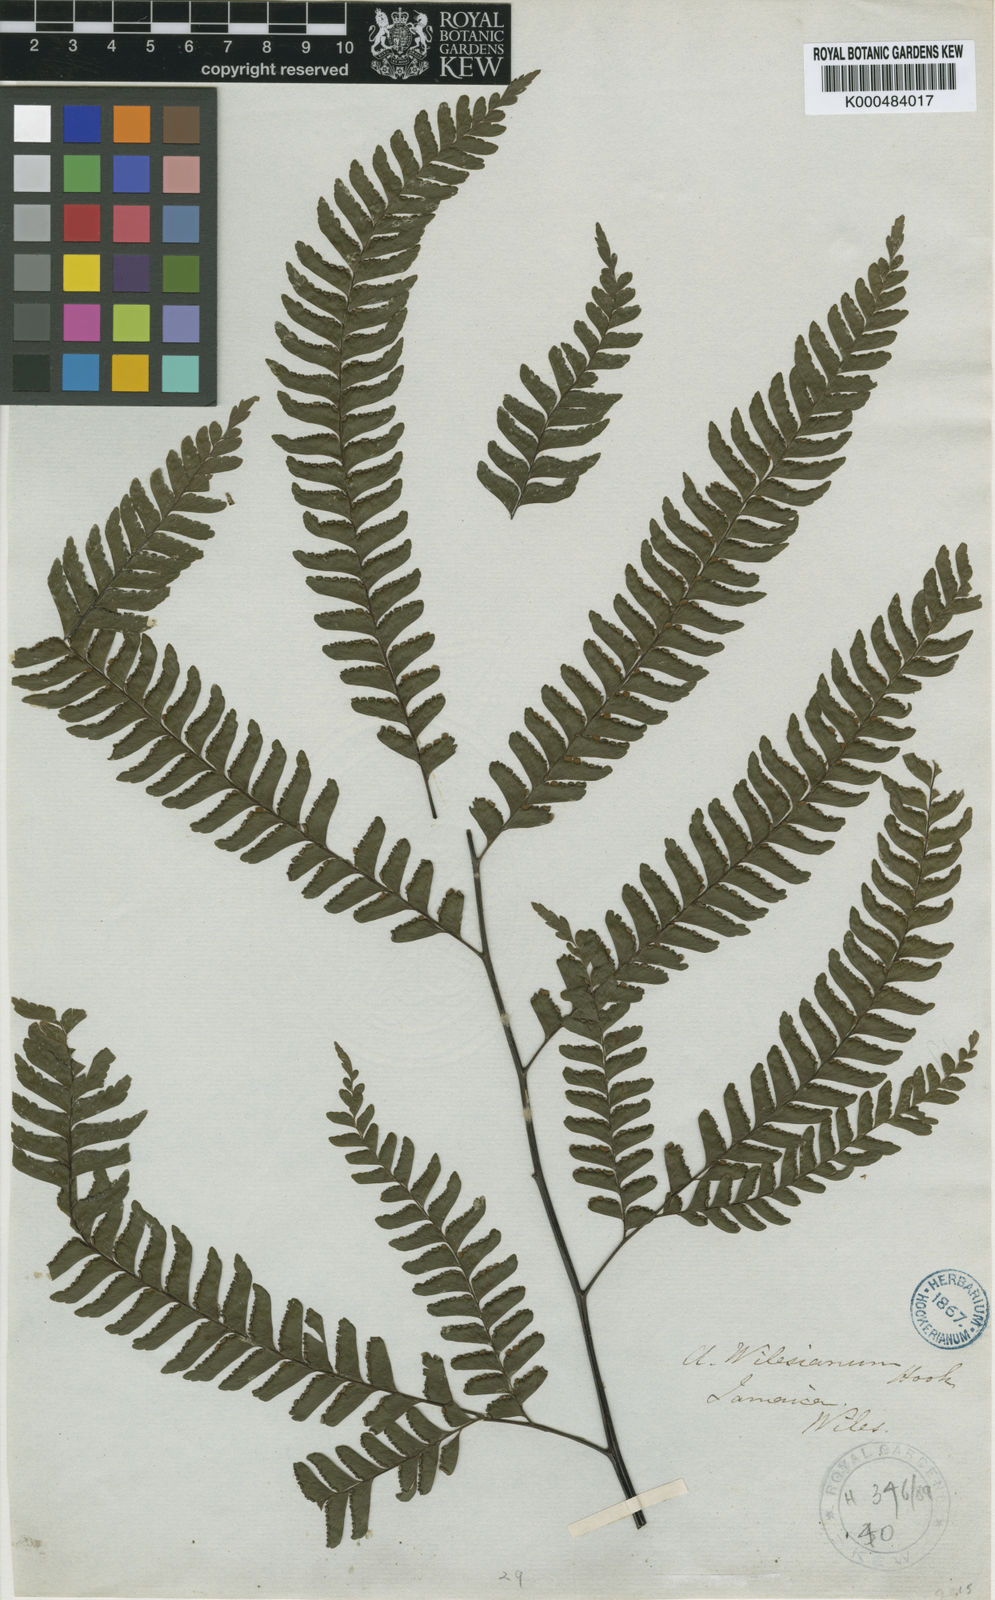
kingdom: Plantae
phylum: Tracheophyta
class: Polypodiopsida
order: Polypodiales
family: Pteridaceae
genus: Adiantum
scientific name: Adiantum wilesianum
